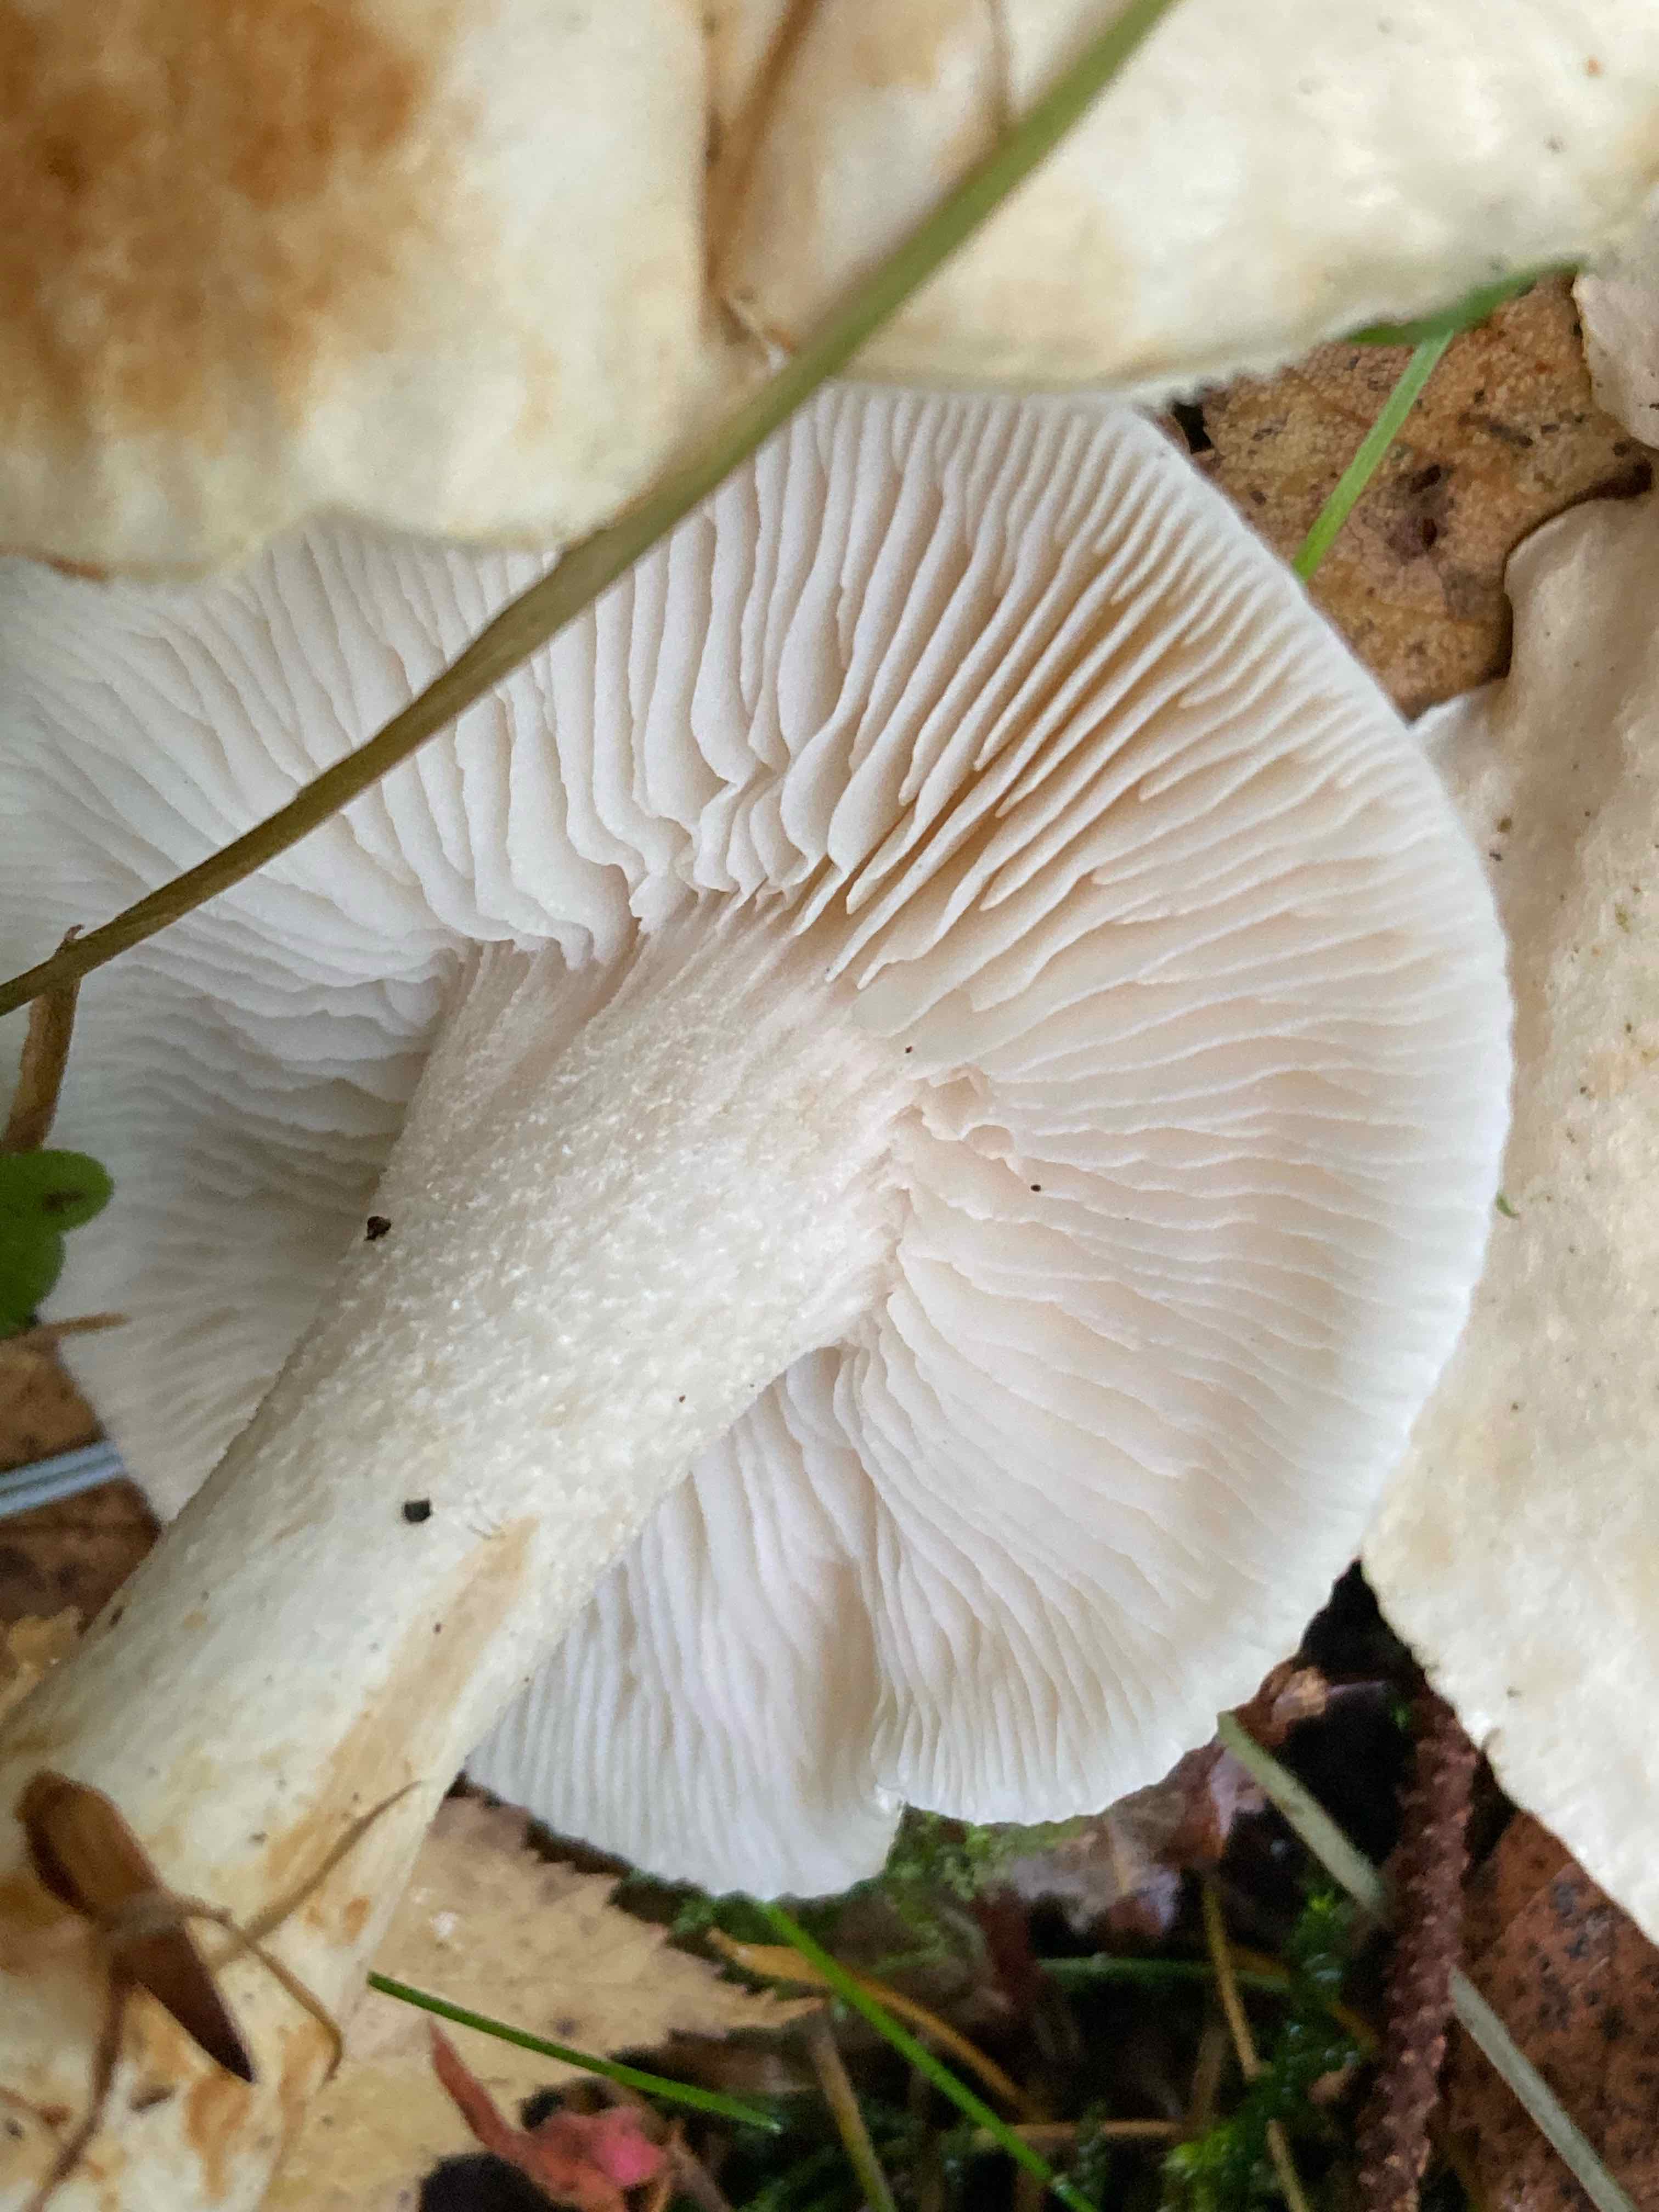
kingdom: Fungi
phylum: Basidiomycota
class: Agaricomycetes
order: Agaricales
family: Tricholomataceae
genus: Tricholoma
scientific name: Tricholoma stiparophyllum
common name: hvid ridderhat
